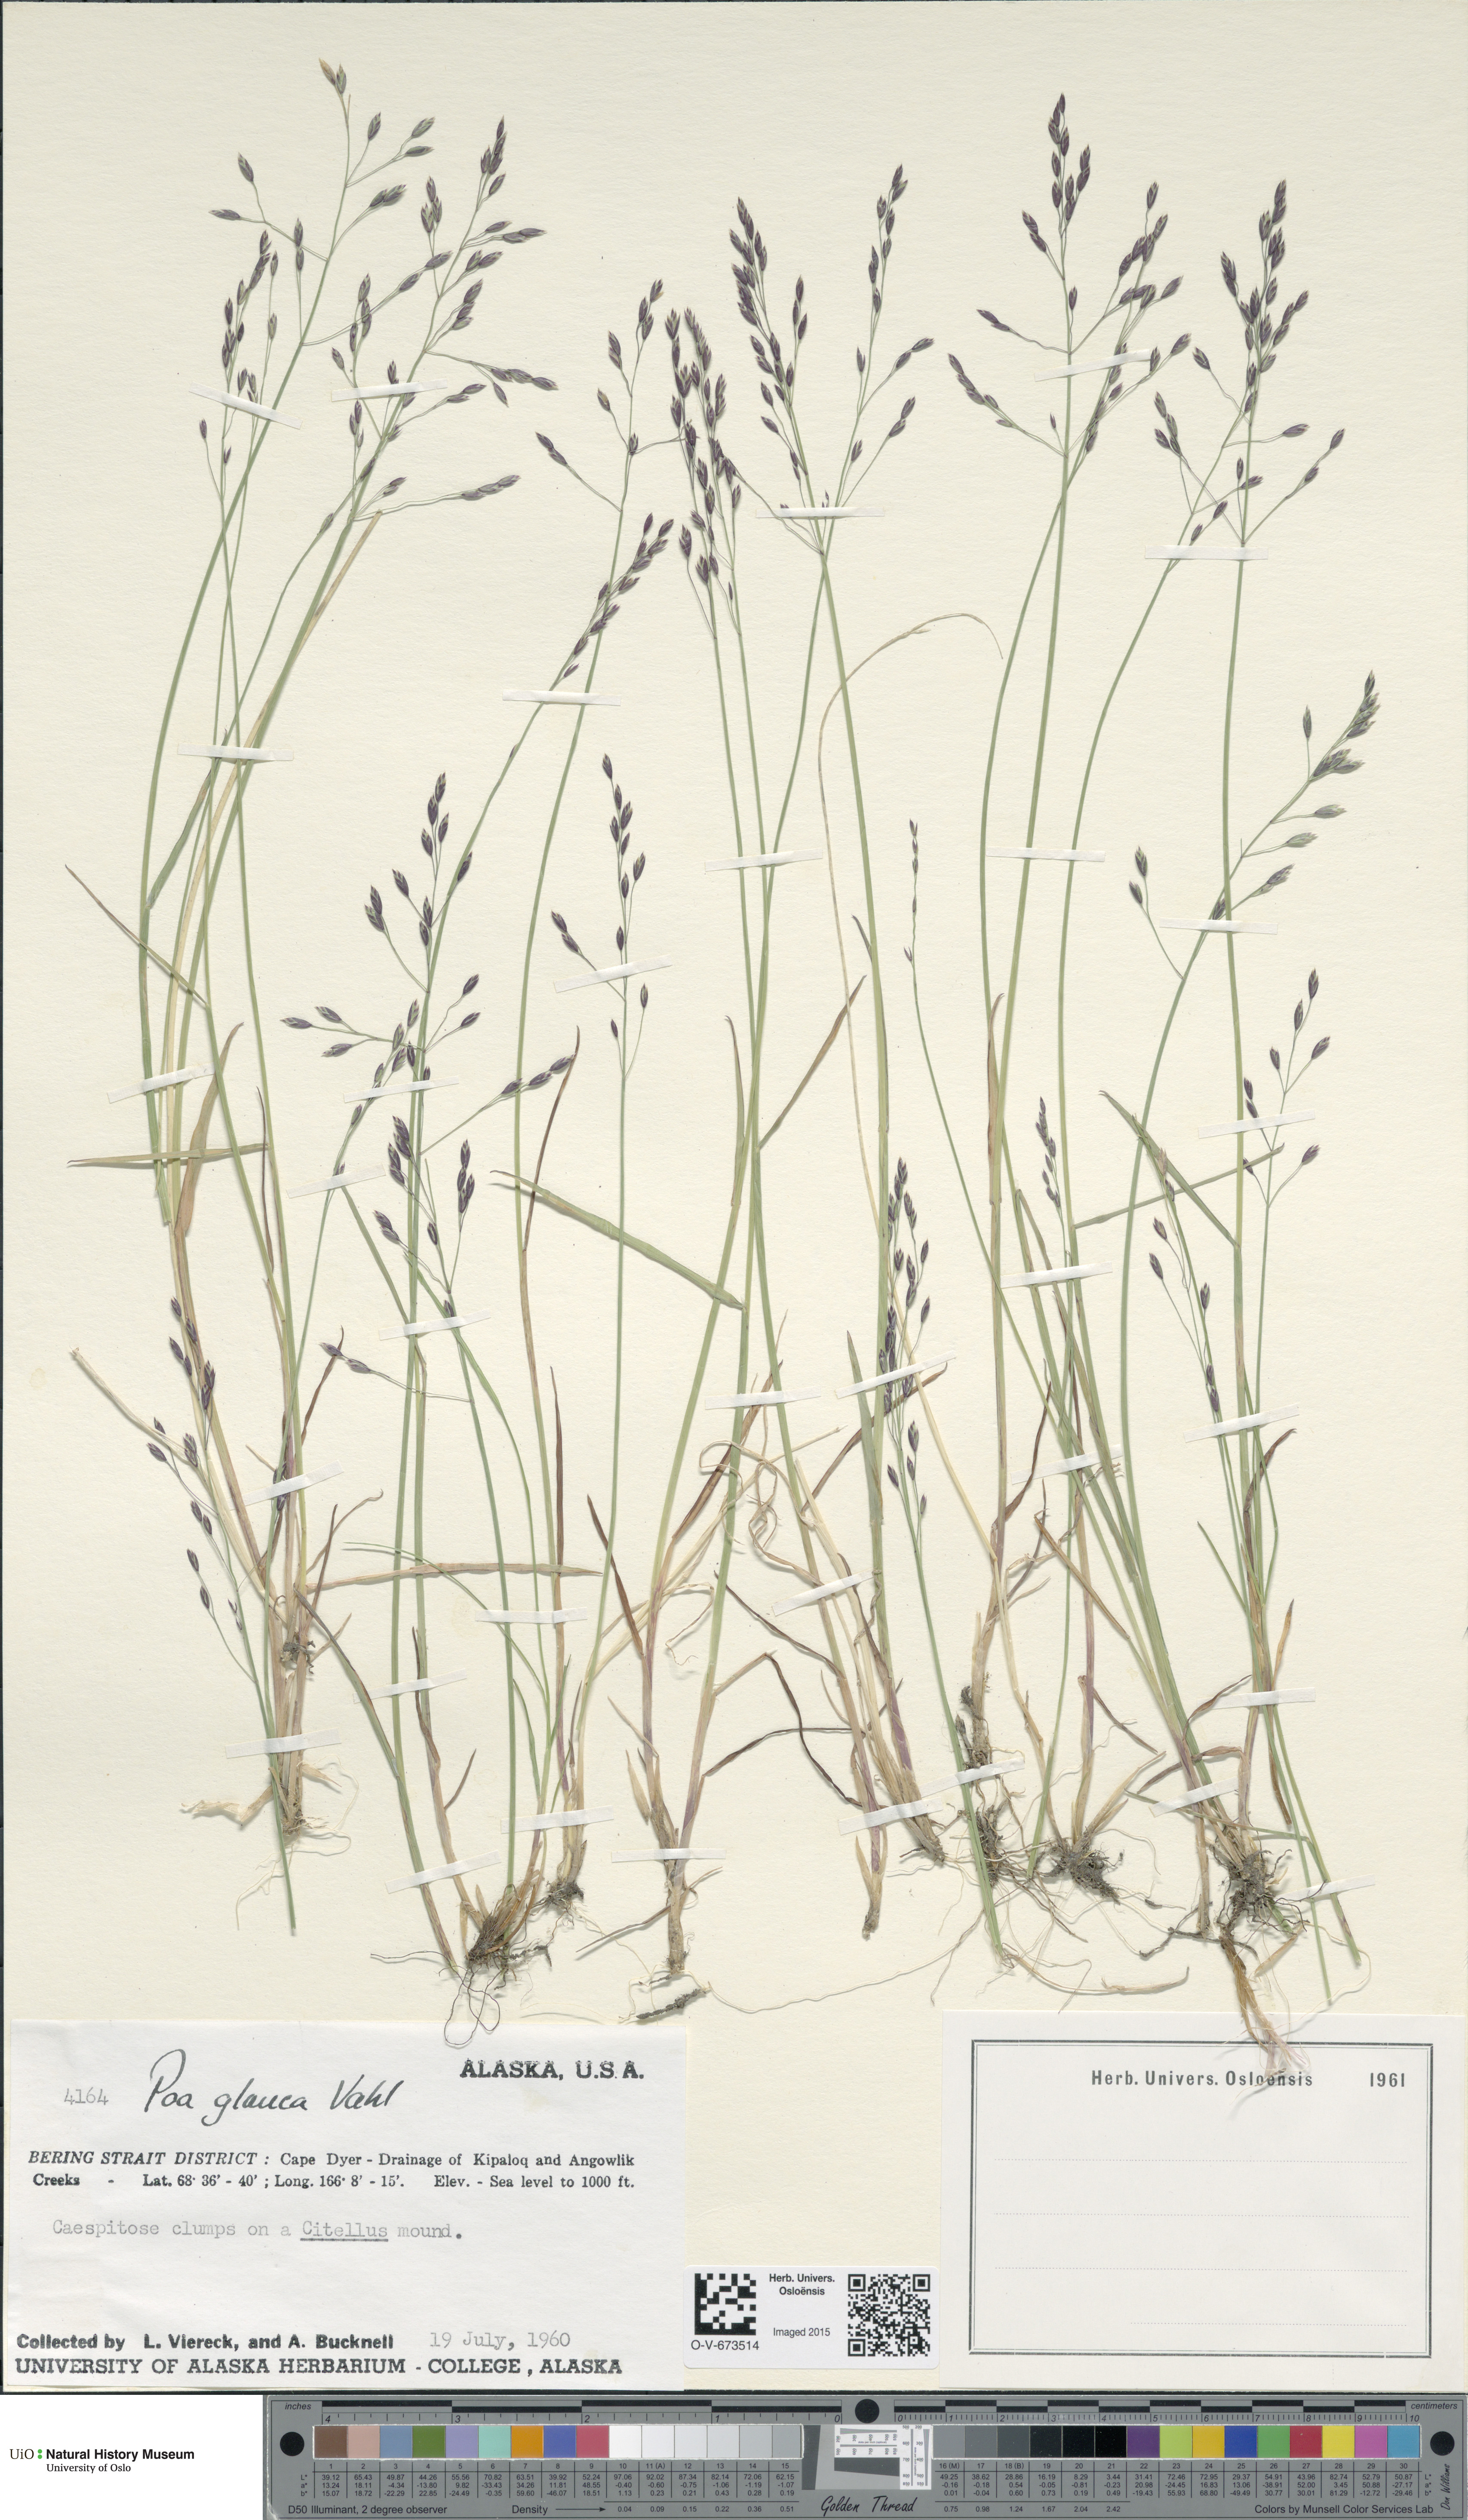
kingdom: Plantae
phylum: Tracheophyta
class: Liliopsida
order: Poales
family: Poaceae
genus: Poa
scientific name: Poa glauca
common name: Glaucous bluegrass
